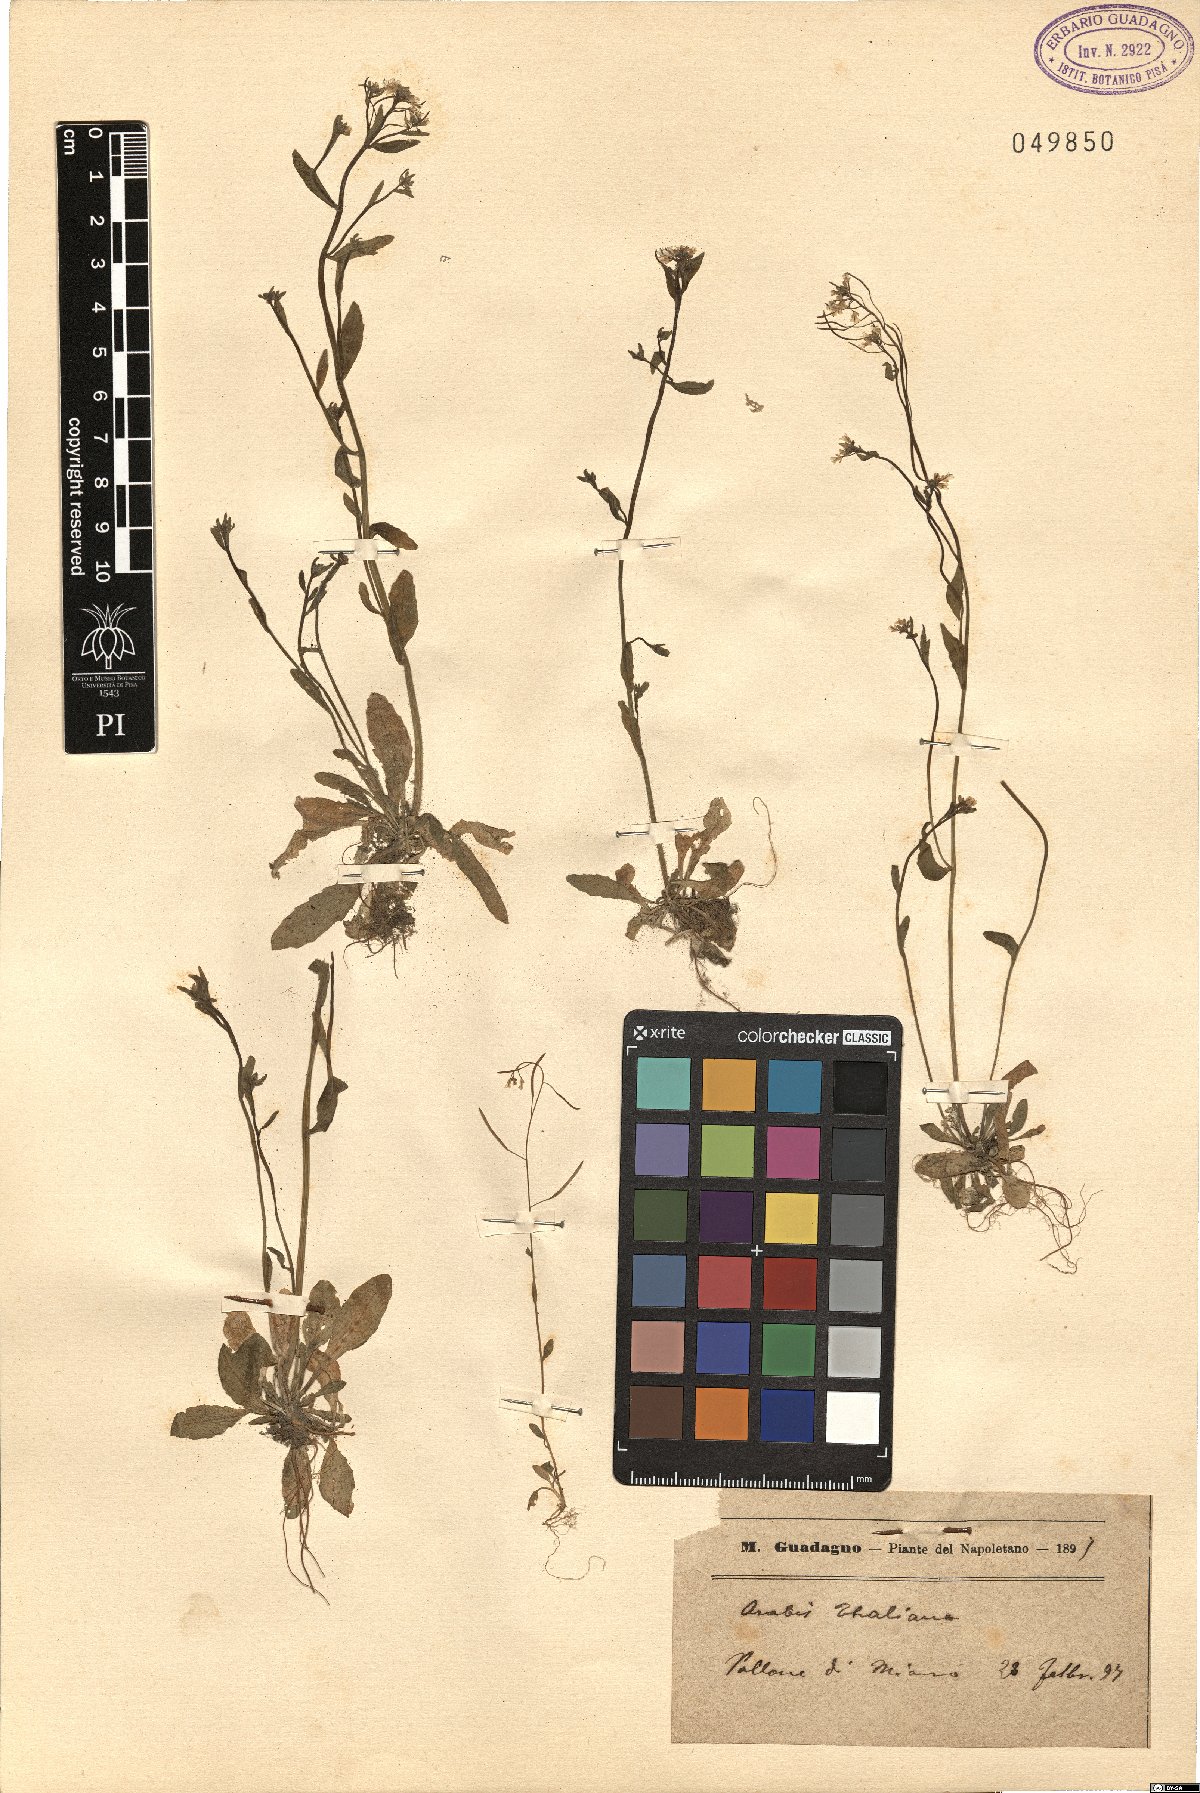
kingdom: Plantae
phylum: Tracheophyta
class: Magnoliopsida
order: Brassicales
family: Brassicaceae
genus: Arabidopsis
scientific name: Arabidopsis thaliana
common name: Thale cress
